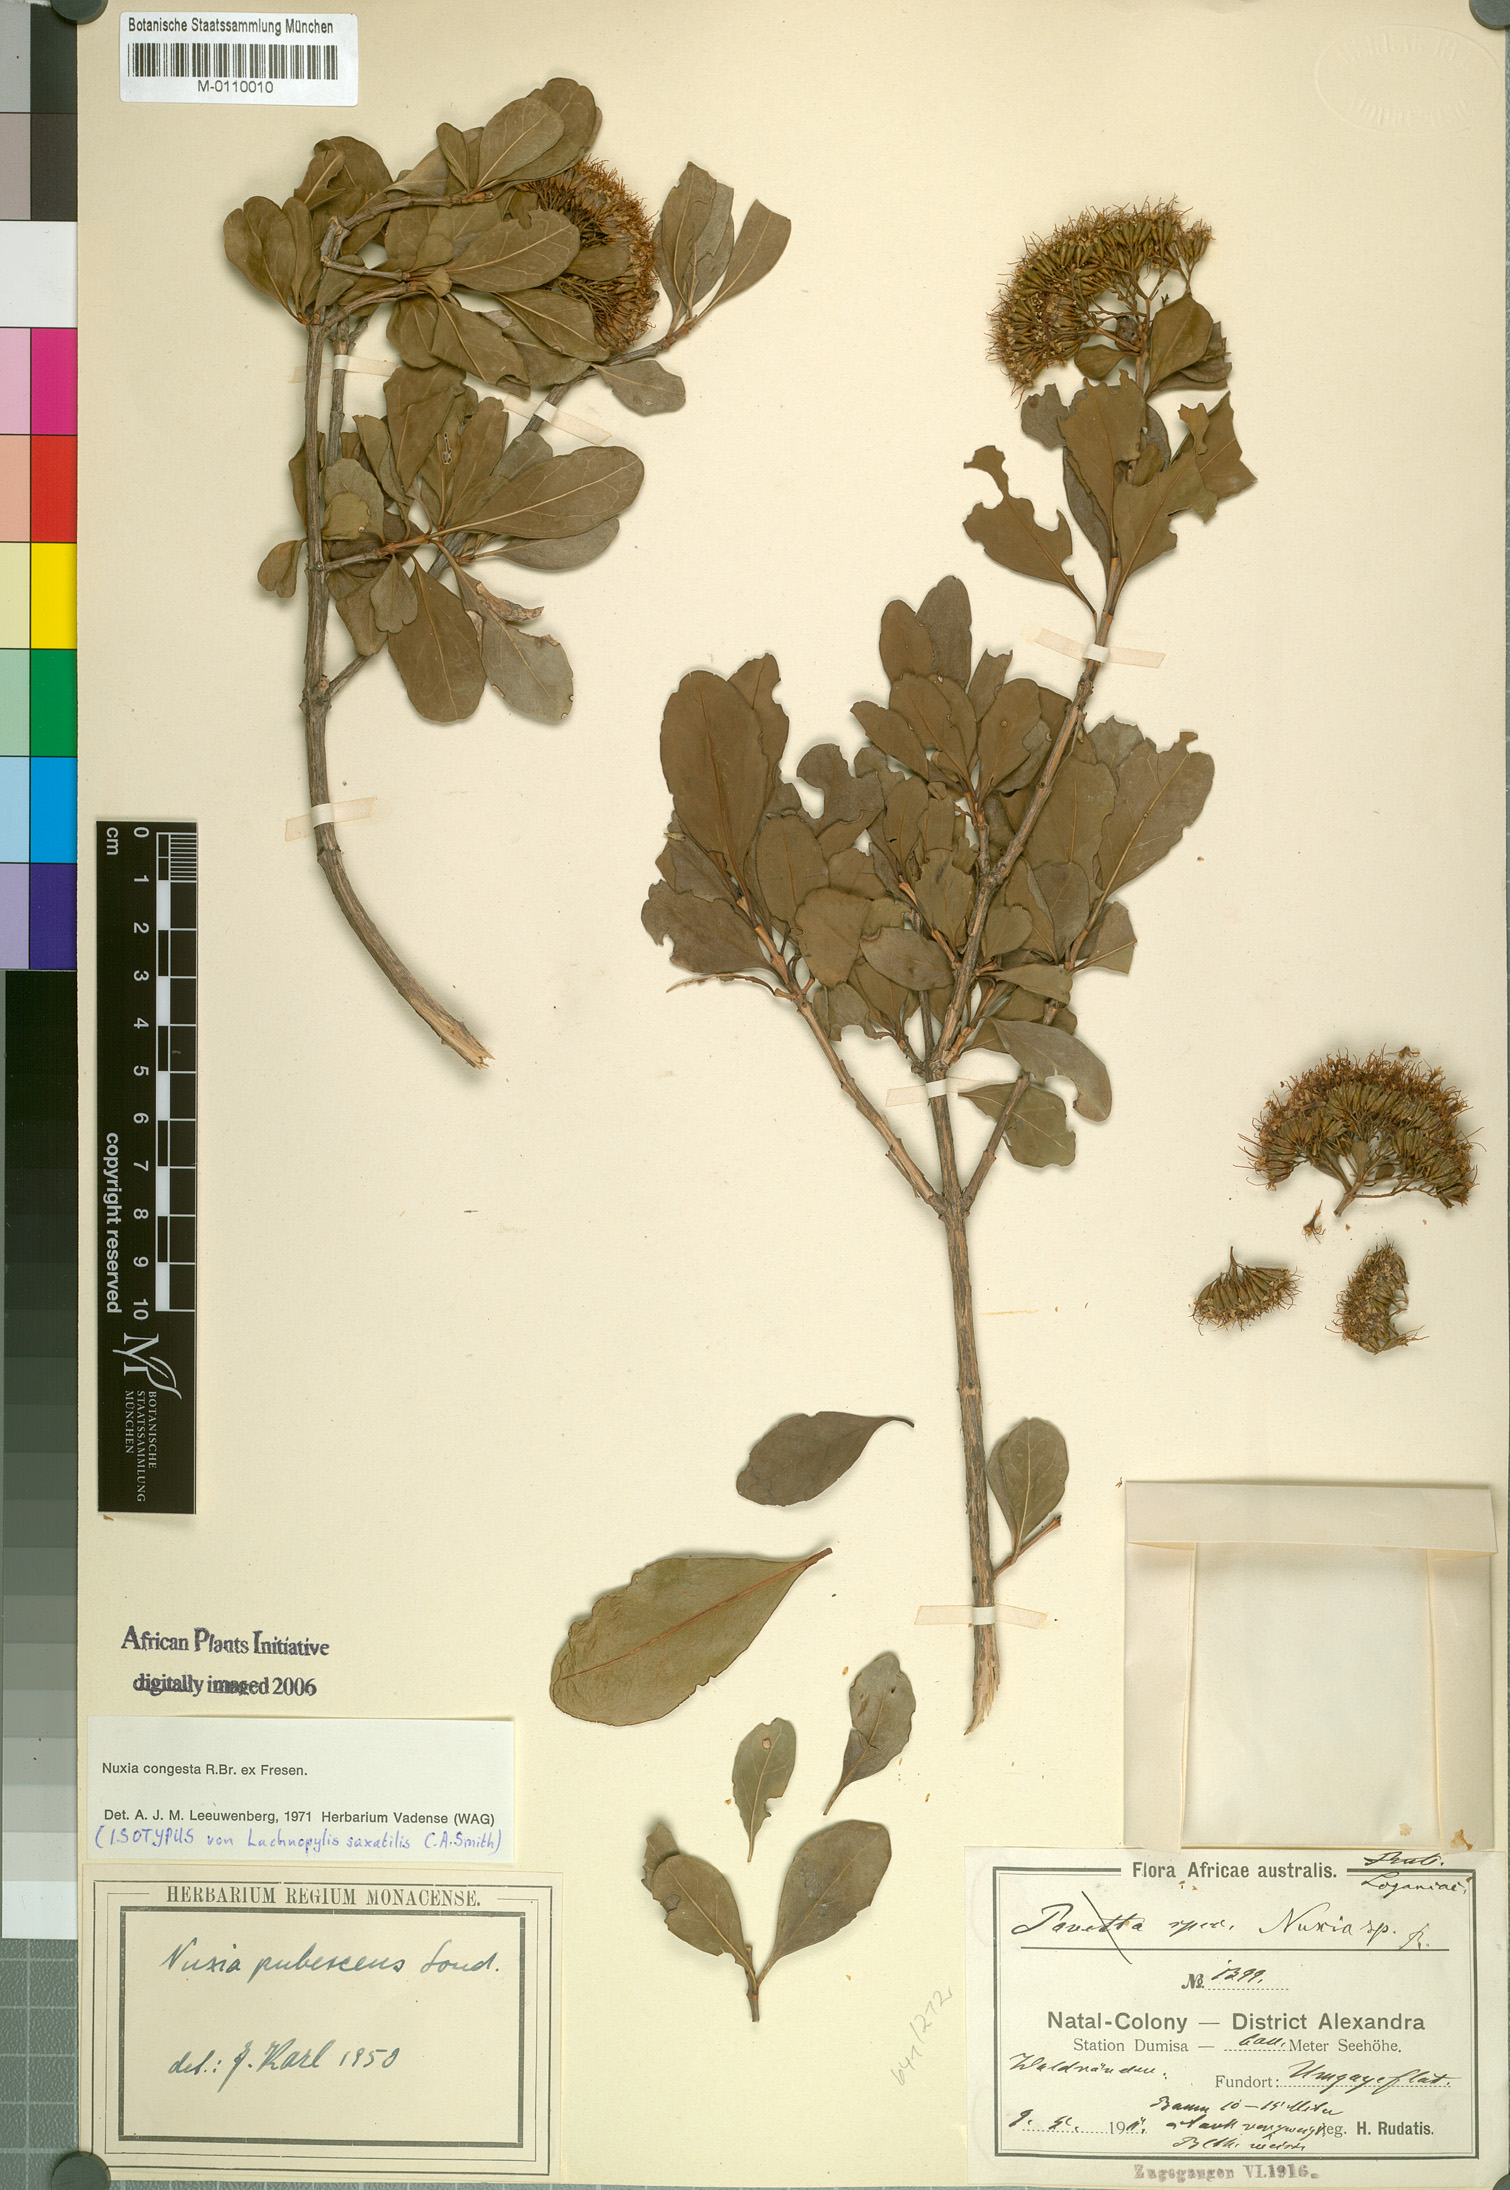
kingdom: Plantae
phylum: Tracheophyta
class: Magnoliopsida
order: Lamiales
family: Stilbaceae
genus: Nuxia
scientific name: Nuxia congesta
